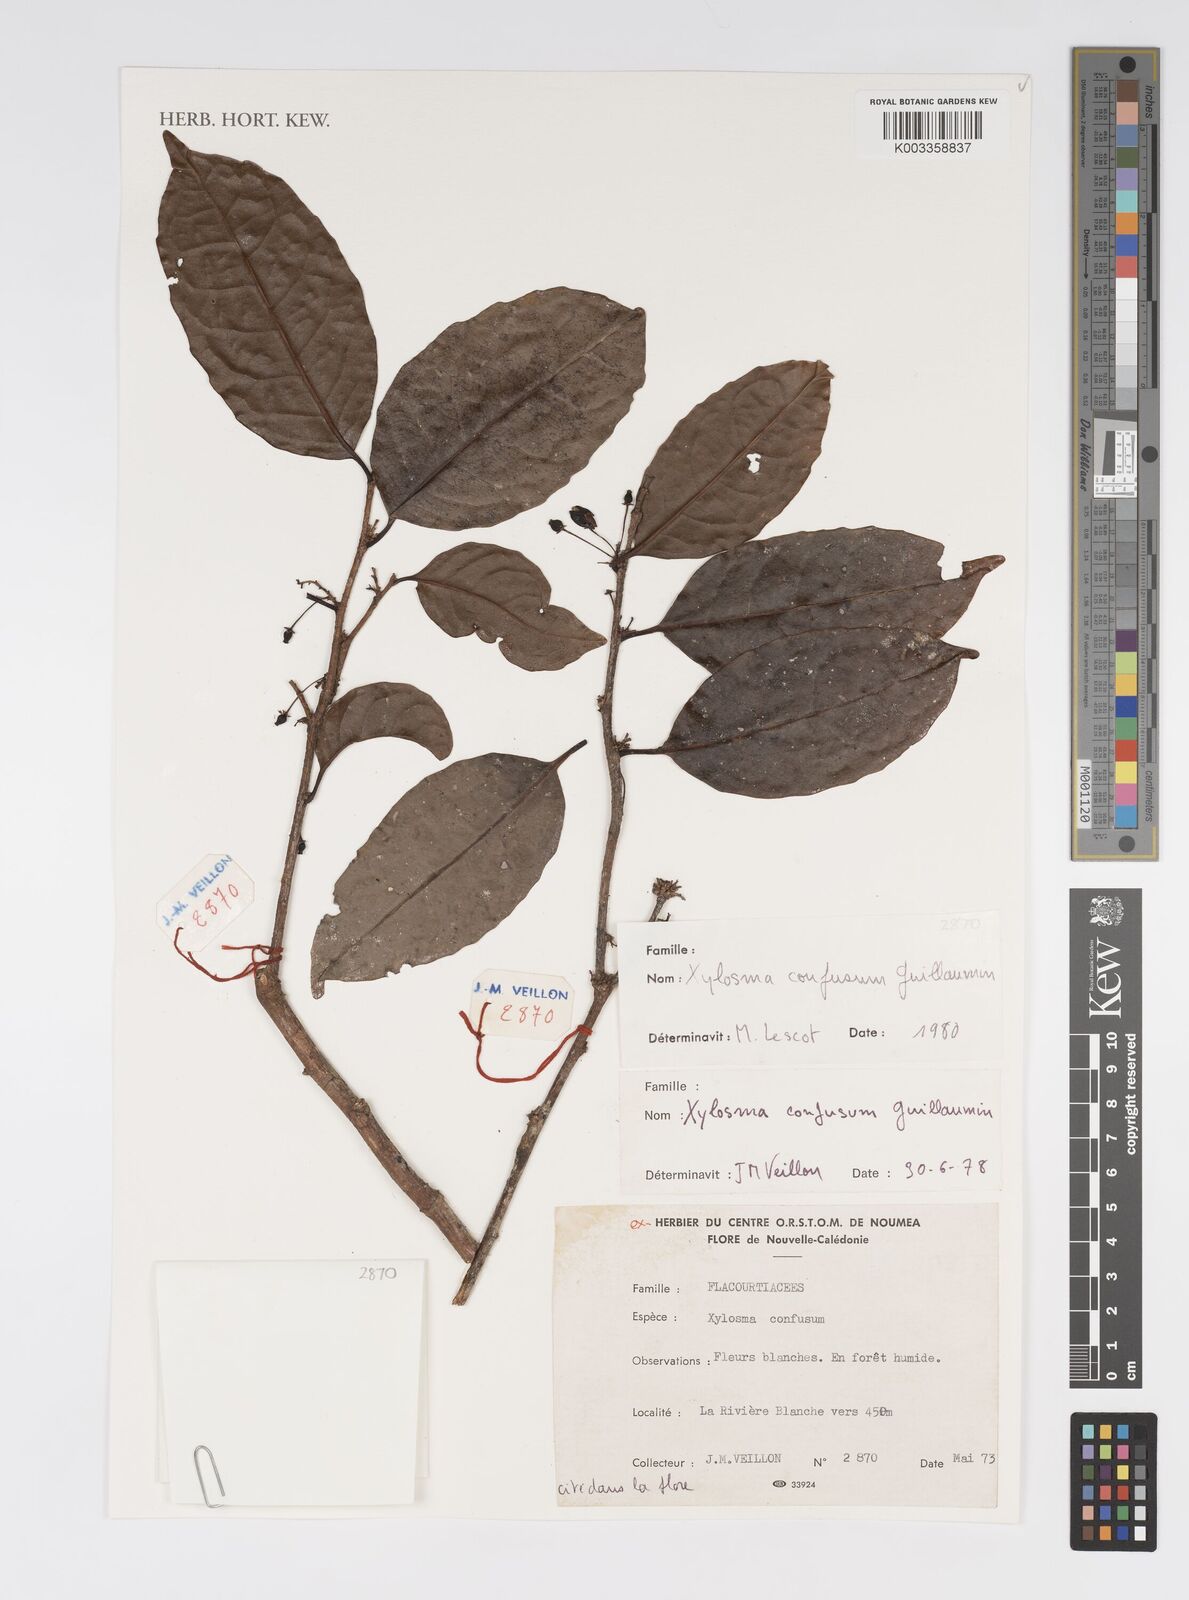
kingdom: Plantae
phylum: Tracheophyta
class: Magnoliopsida
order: Malpighiales
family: Salicaceae
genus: Xylosma
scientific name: Xylosma confusa
